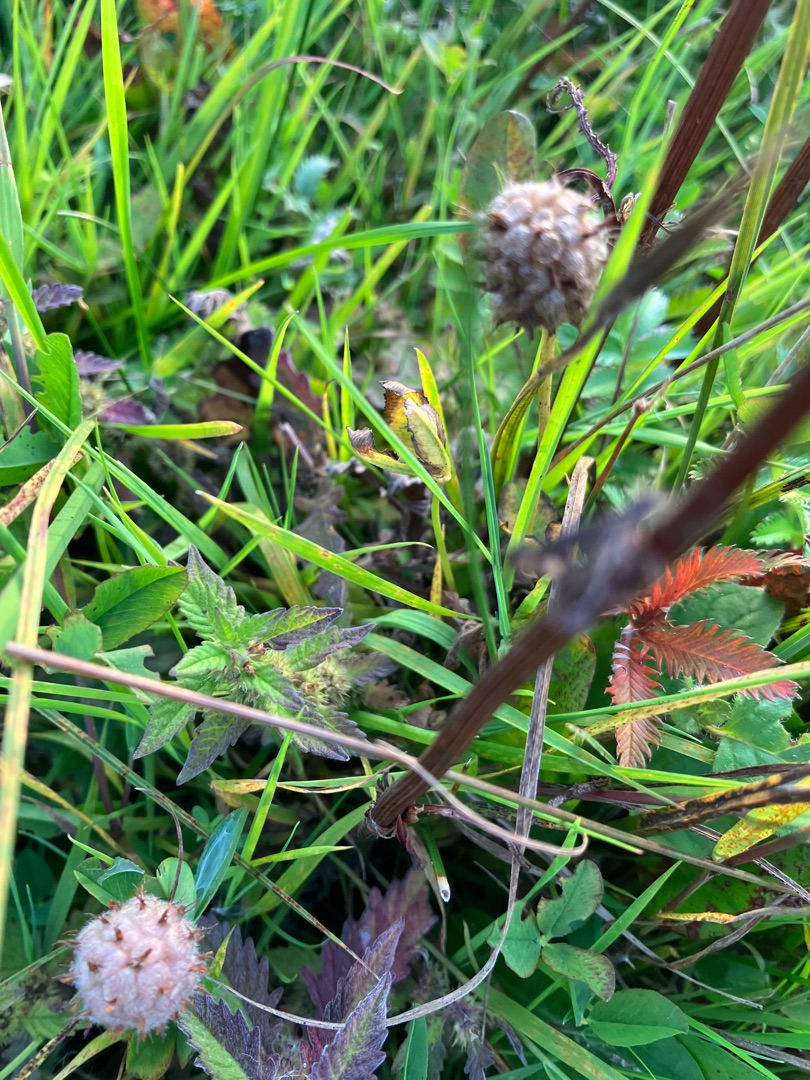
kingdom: Plantae
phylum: Tracheophyta
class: Magnoliopsida
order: Fabales
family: Fabaceae
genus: Trifolium
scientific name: Trifolium fragiferum
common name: Jordbær-kløver
